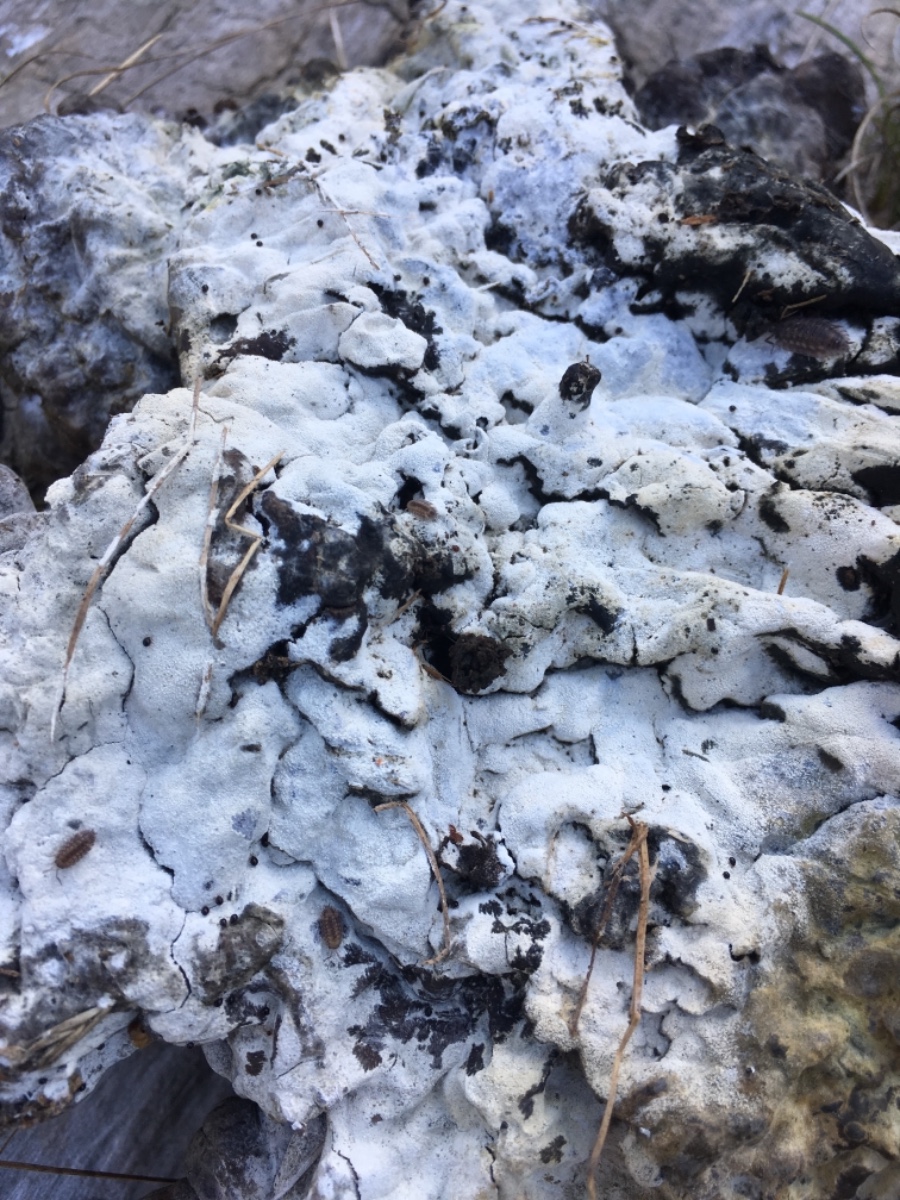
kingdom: Fungi
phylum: Basidiomycota
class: Agaricomycetes
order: Corticiales
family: Corticiaceae
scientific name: Corticiaceae
